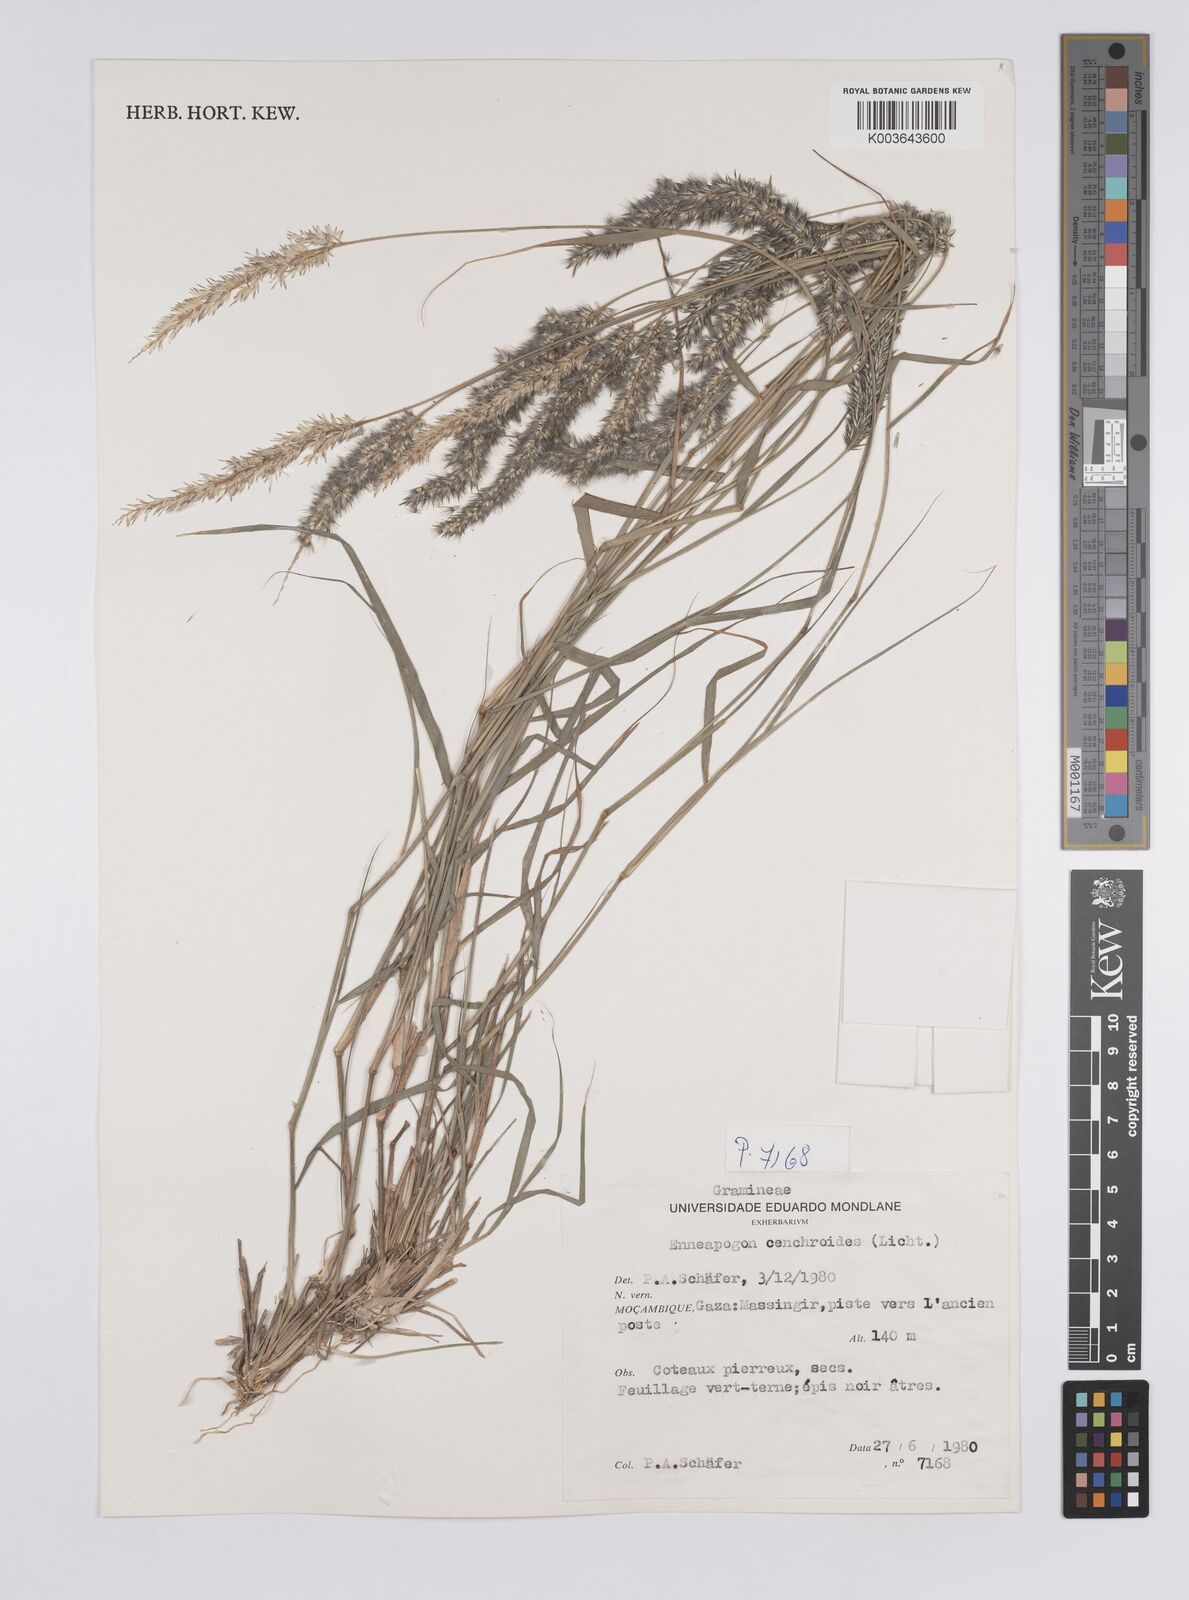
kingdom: Plantae
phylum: Tracheophyta
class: Liliopsida
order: Poales
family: Poaceae
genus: Enneapogon
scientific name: Enneapogon cenchroides
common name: Soft feather pappusgrass
